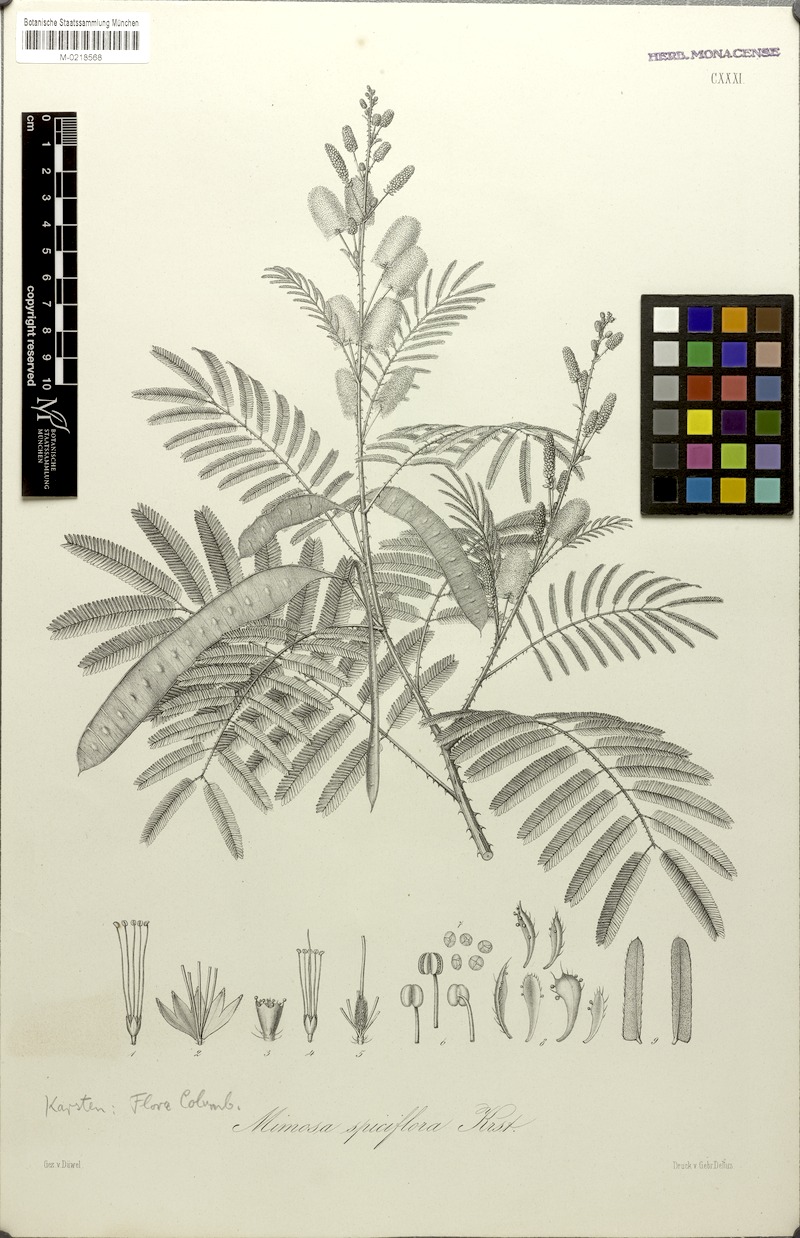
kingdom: Plantae
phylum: Tracheophyta
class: Magnoliopsida
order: Fabales
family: Fabaceae
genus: Mimosa
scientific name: Mimosa invisa
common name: Creeping sensitive-plant
